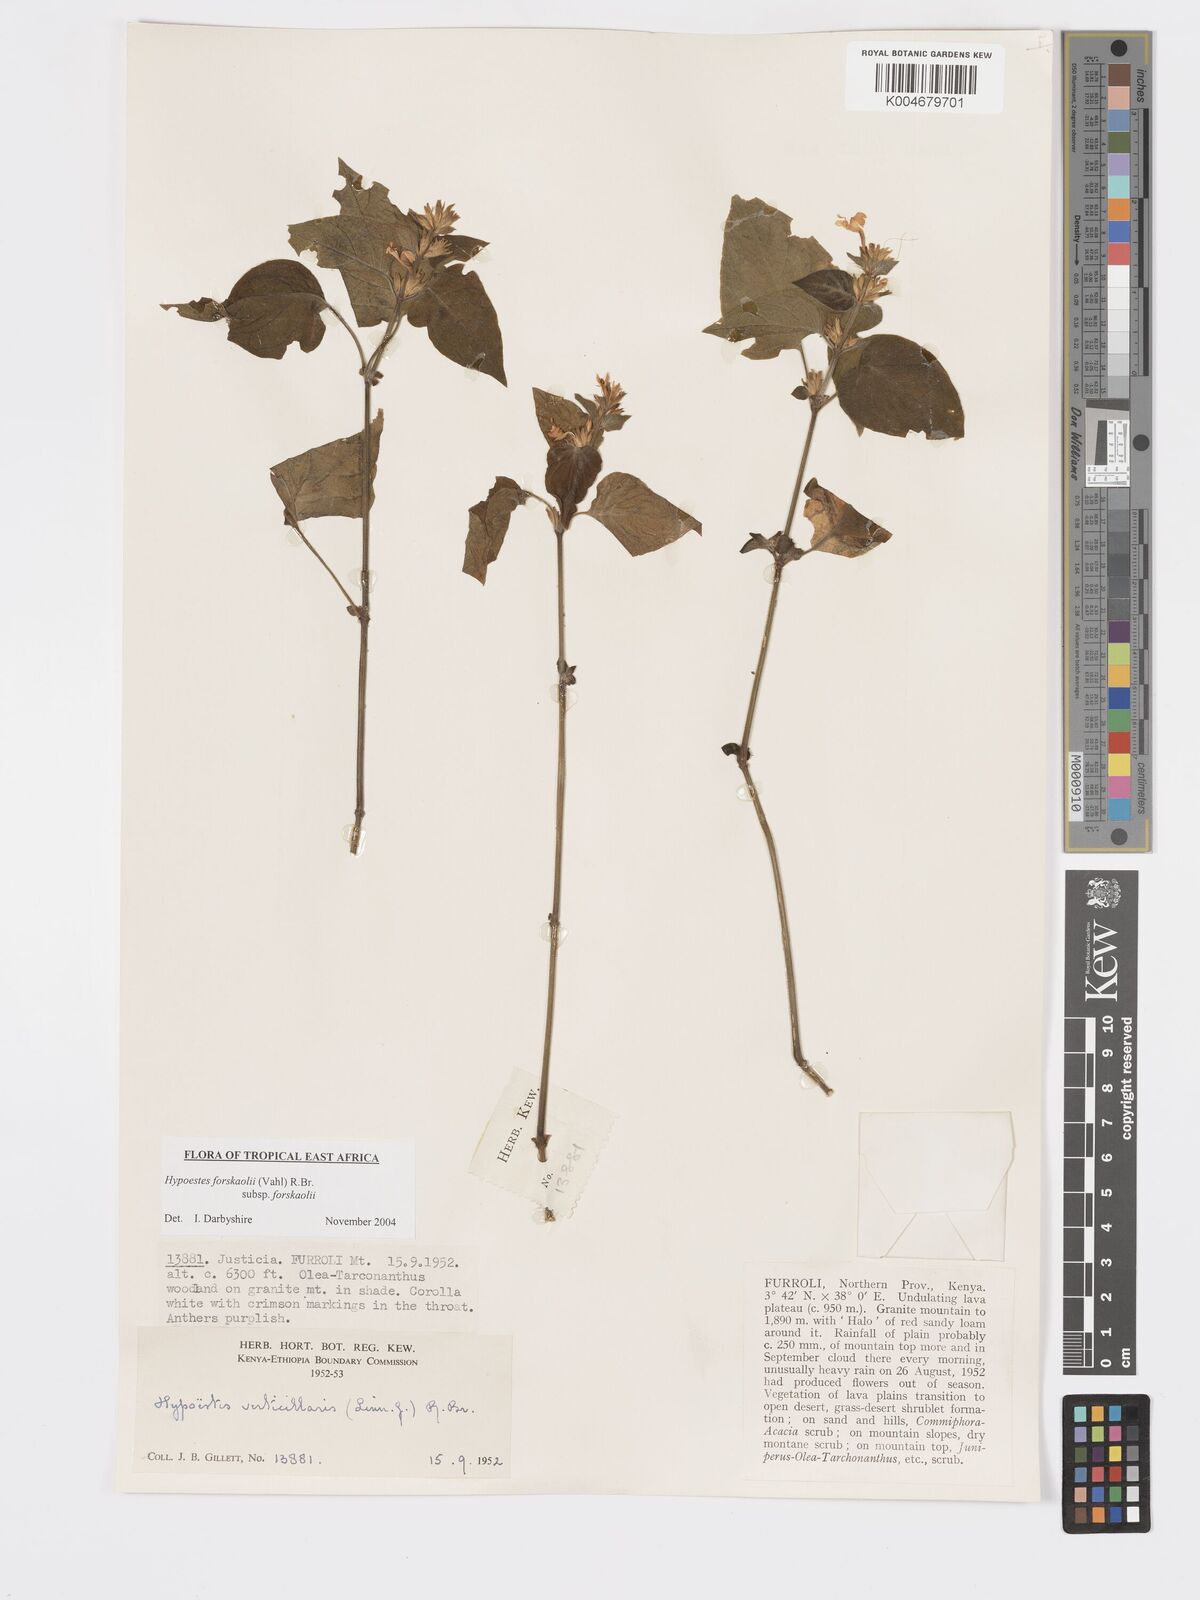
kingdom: Plantae
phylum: Tracheophyta
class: Magnoliopsida
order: Lamiales
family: Acanthaceae
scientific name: Acanthaceae
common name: Acanthaceae
